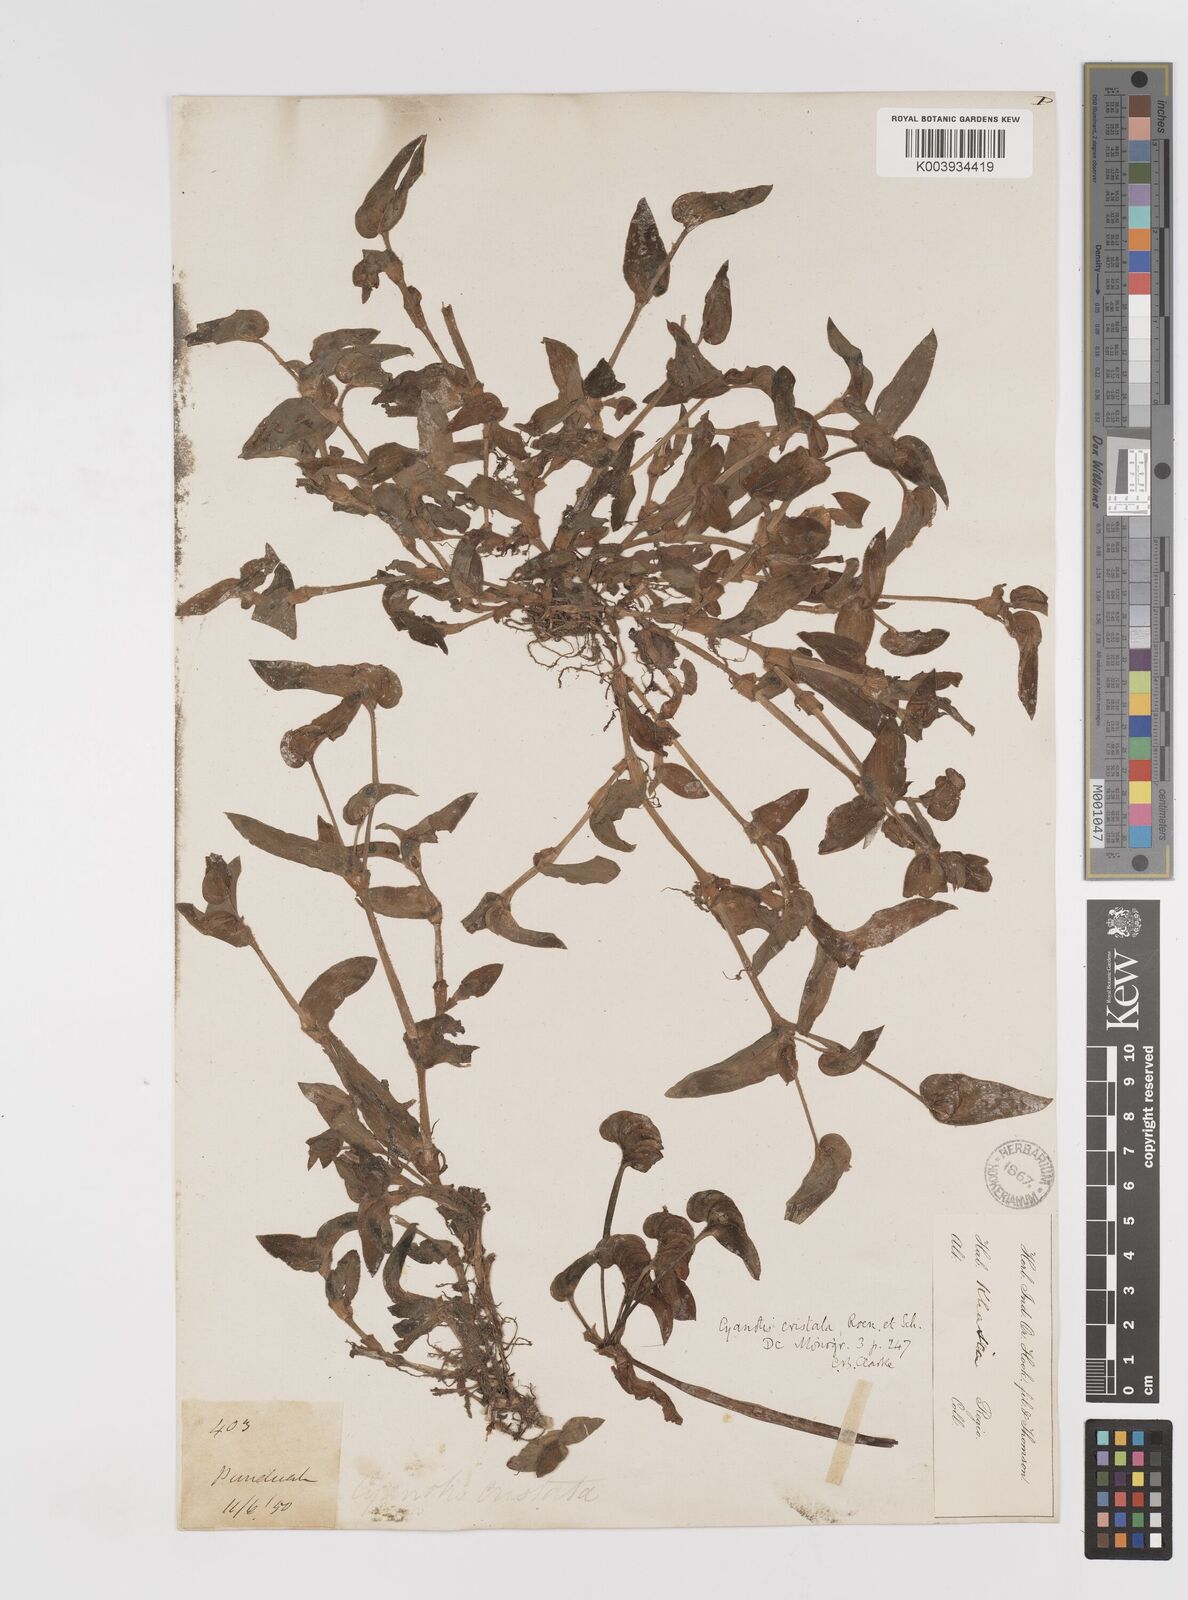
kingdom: Plantae
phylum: Tracheophyta
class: Liliopsida
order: Commelinales
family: Commelinaceae
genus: Cyanotis
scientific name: Cyanotis cristata
